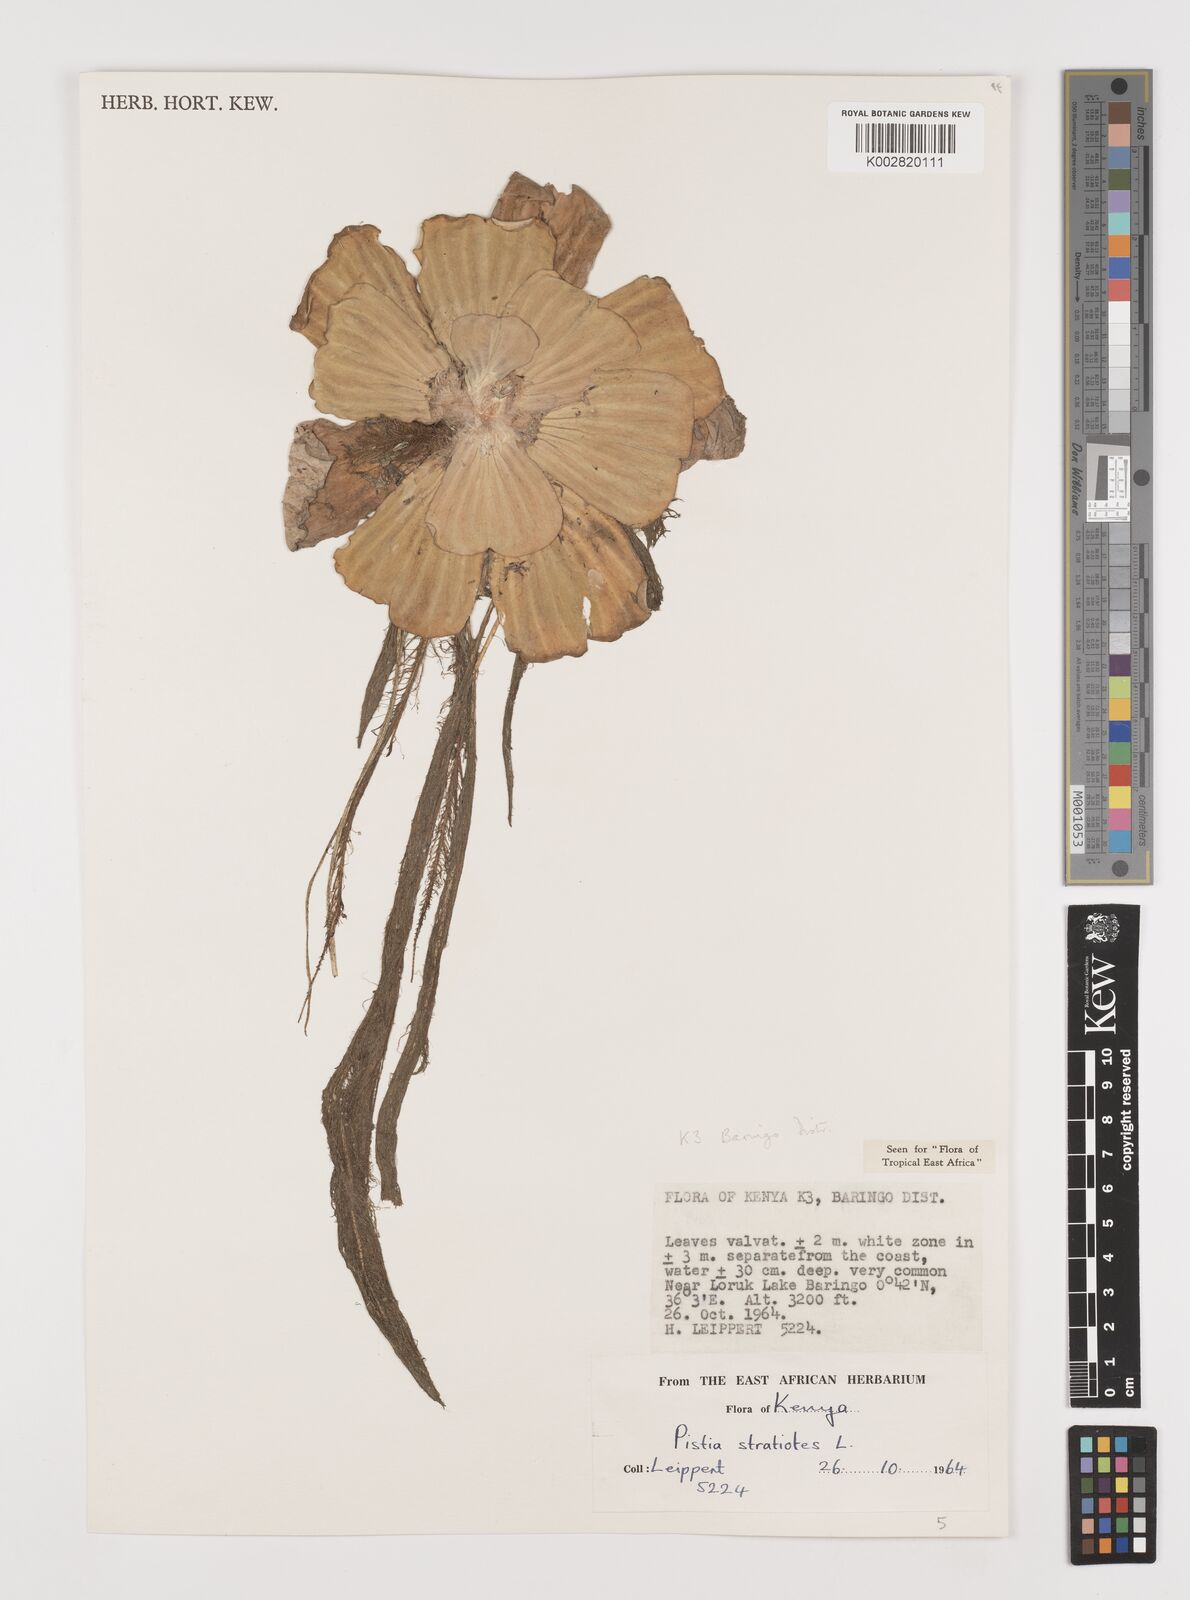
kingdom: Plantae
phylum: Tracheophyta
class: Liliopsida
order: Alismatales
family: Araceae
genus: Pistia
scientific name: Pistia stratiotes
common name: Water lettuce
